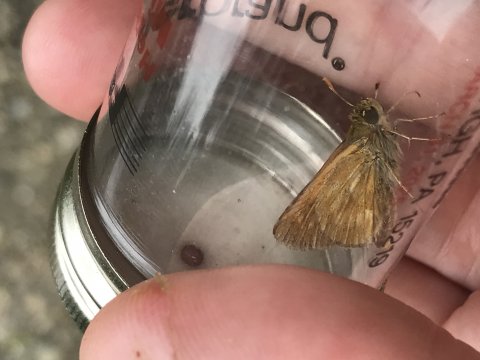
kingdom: Animalia
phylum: Arthropoda
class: Insecta
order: Lepidoptera
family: Hesperiidae
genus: Polites
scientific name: Polites
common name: Long Dash Skipper
